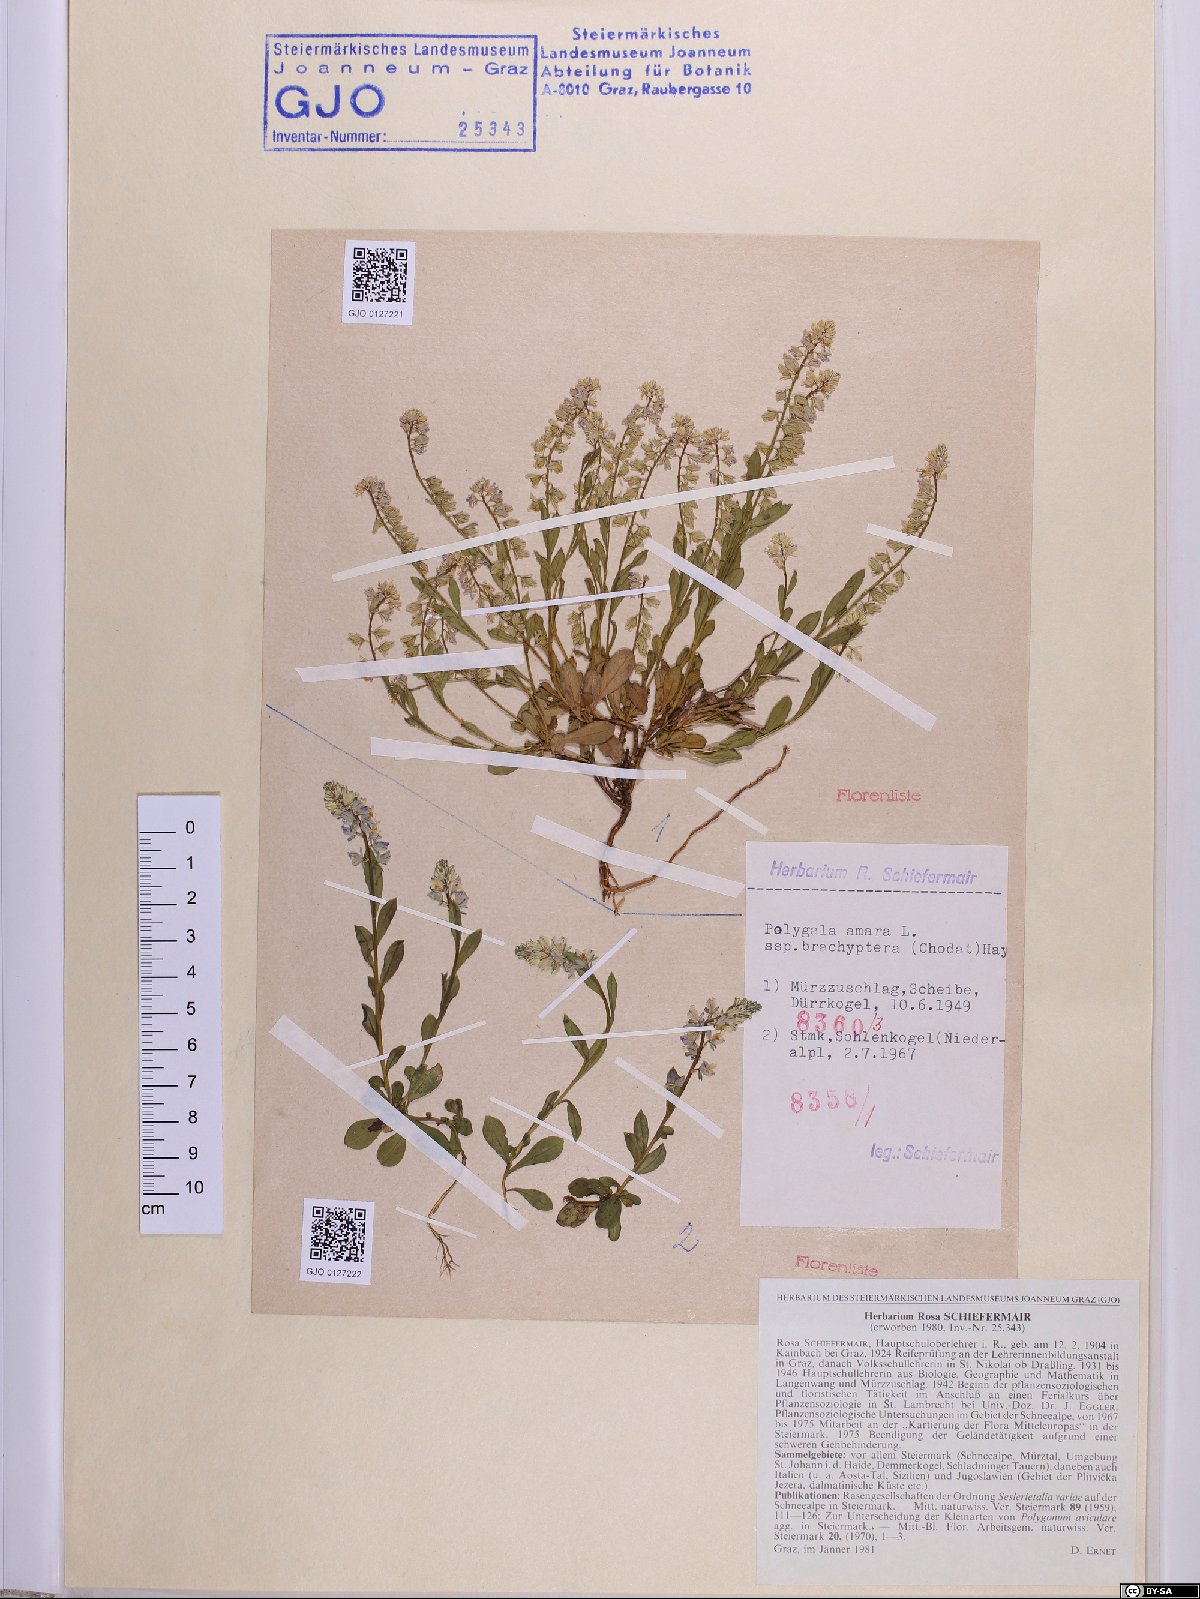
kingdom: Plantae
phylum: Tracheophyta
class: Magnoliopsida
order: Fabales
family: Polygalaceae
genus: Polygala
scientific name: Polygala amara
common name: Milkwort
